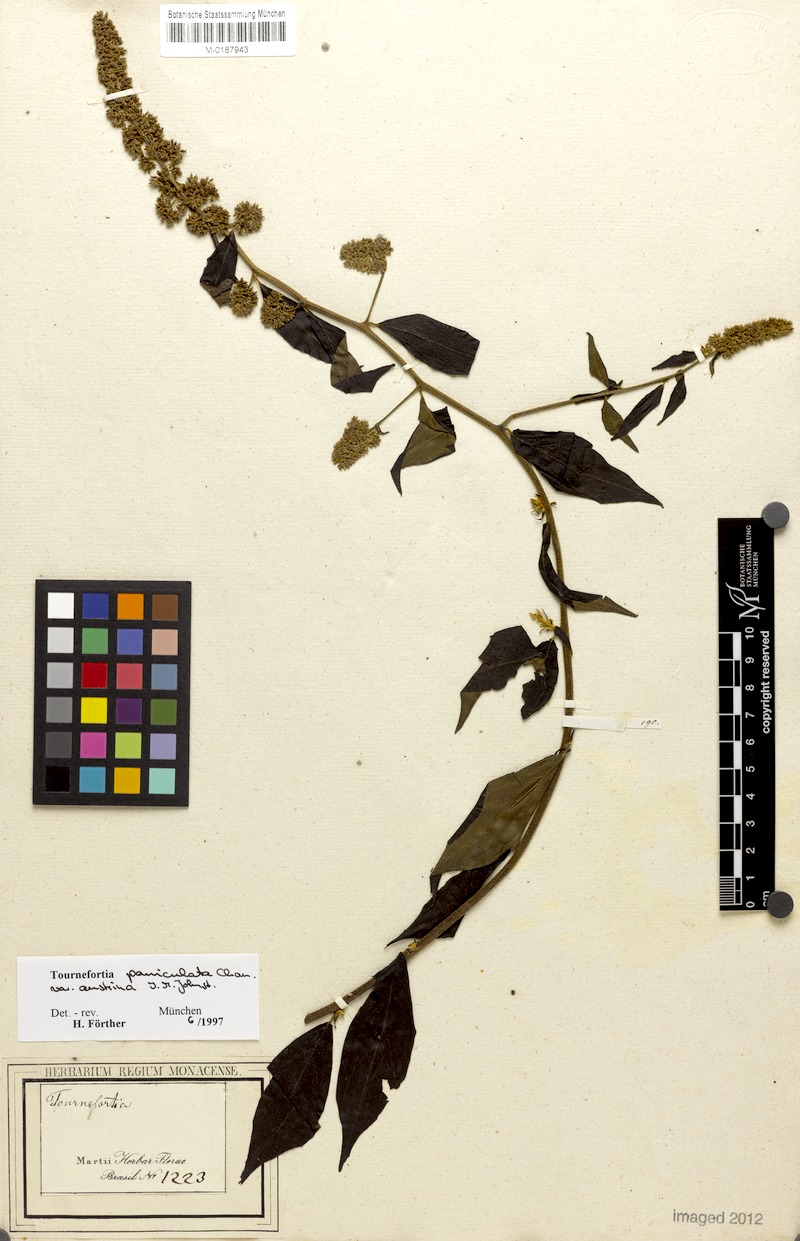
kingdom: Plantae
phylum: Tracheophyta
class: Magnoliopsida
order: Boraginales
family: Heliotropiaceae
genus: Myriopus
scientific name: Myriopus paniculatus
